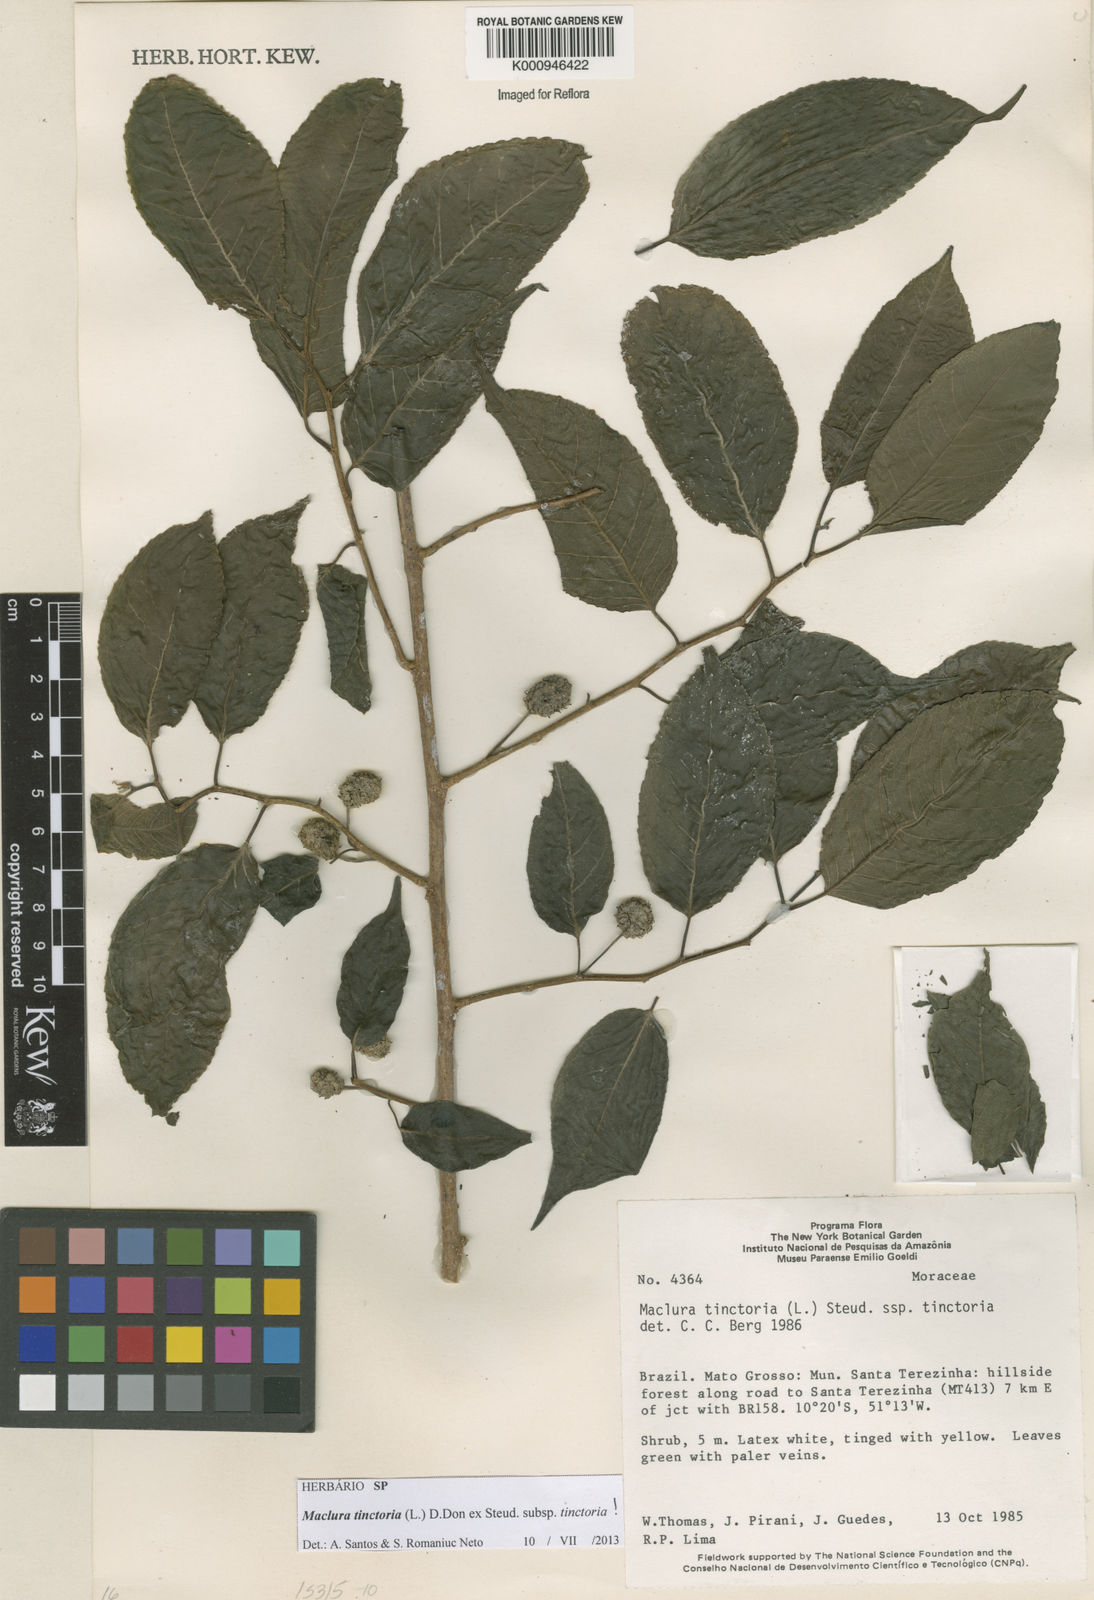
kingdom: Plantae
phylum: Tracheophyta
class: Magnoliopsida
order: Rosales
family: Moraceae
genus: Maclura
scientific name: Maclura tinctoria
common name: Old fustic
